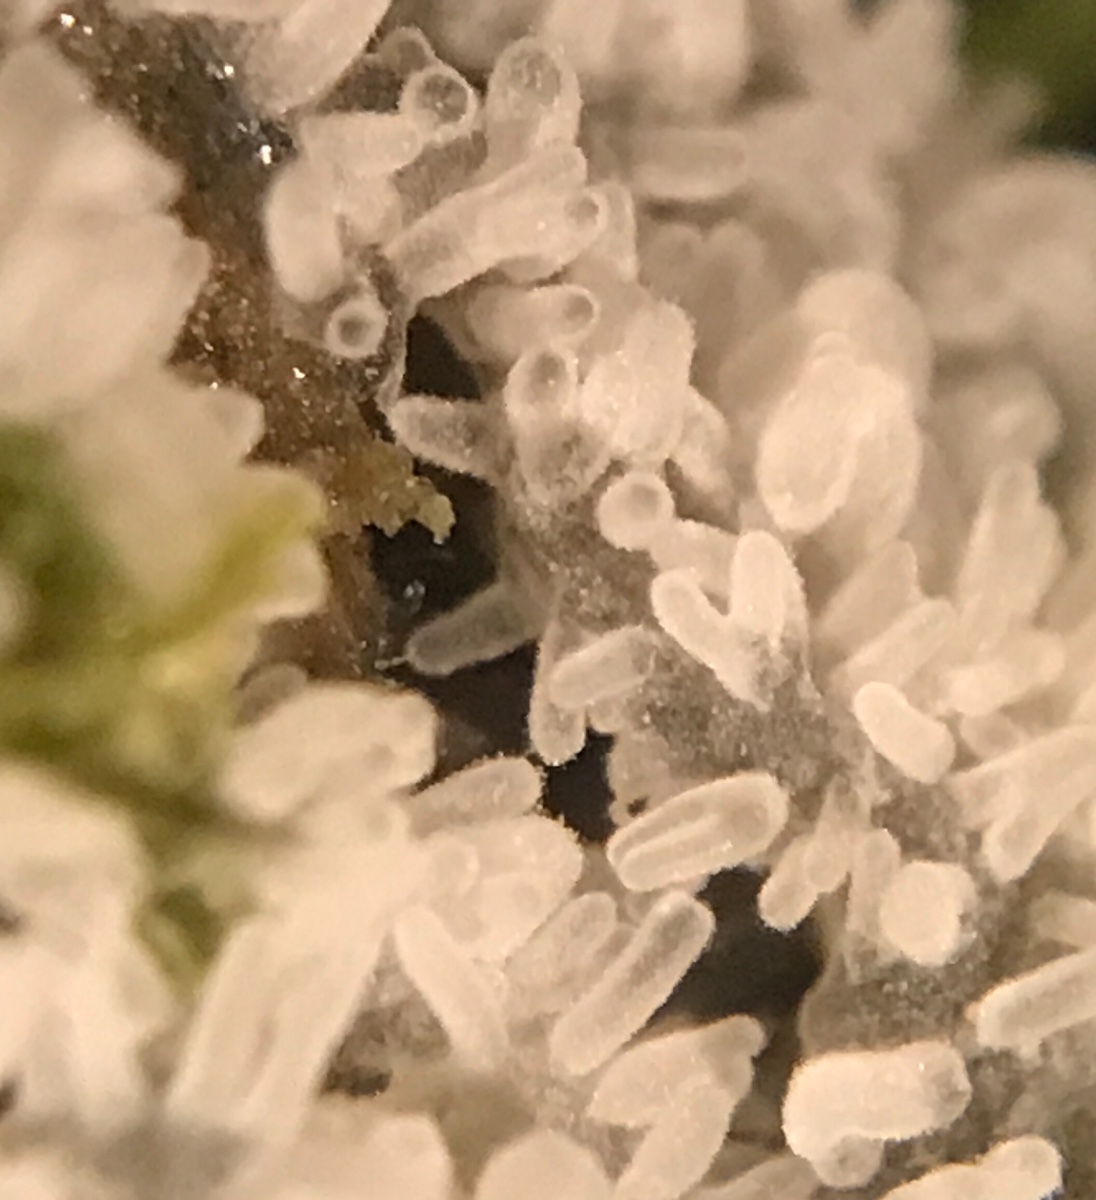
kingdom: Protozoa
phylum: Mycetozoa
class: Protosteliomycetes
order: Ceratiomyxales
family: Ceratiomyxaceae
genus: Ceratiomyxa
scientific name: Ceratiomyxa fruticulosa
